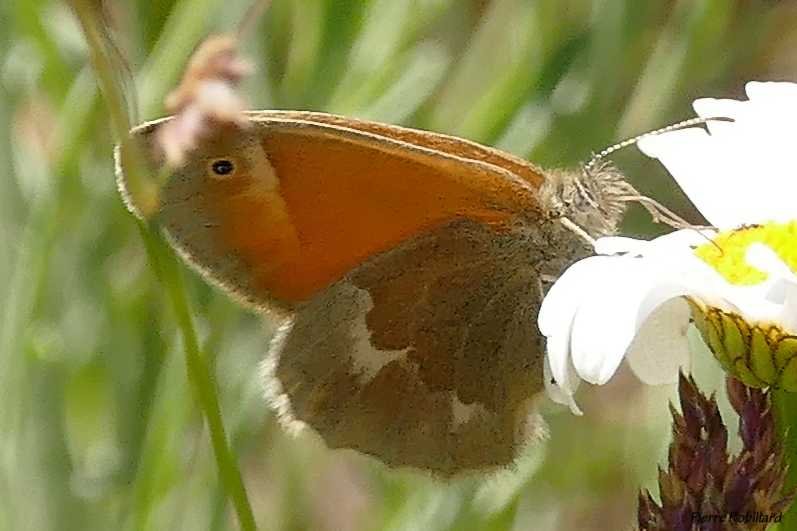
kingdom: Animalia
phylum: Arthropoda
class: Insecta
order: Lepidoptera
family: Nymphalidae
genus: Coenonympha
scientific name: Coenonympha tullia
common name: Large Heath
